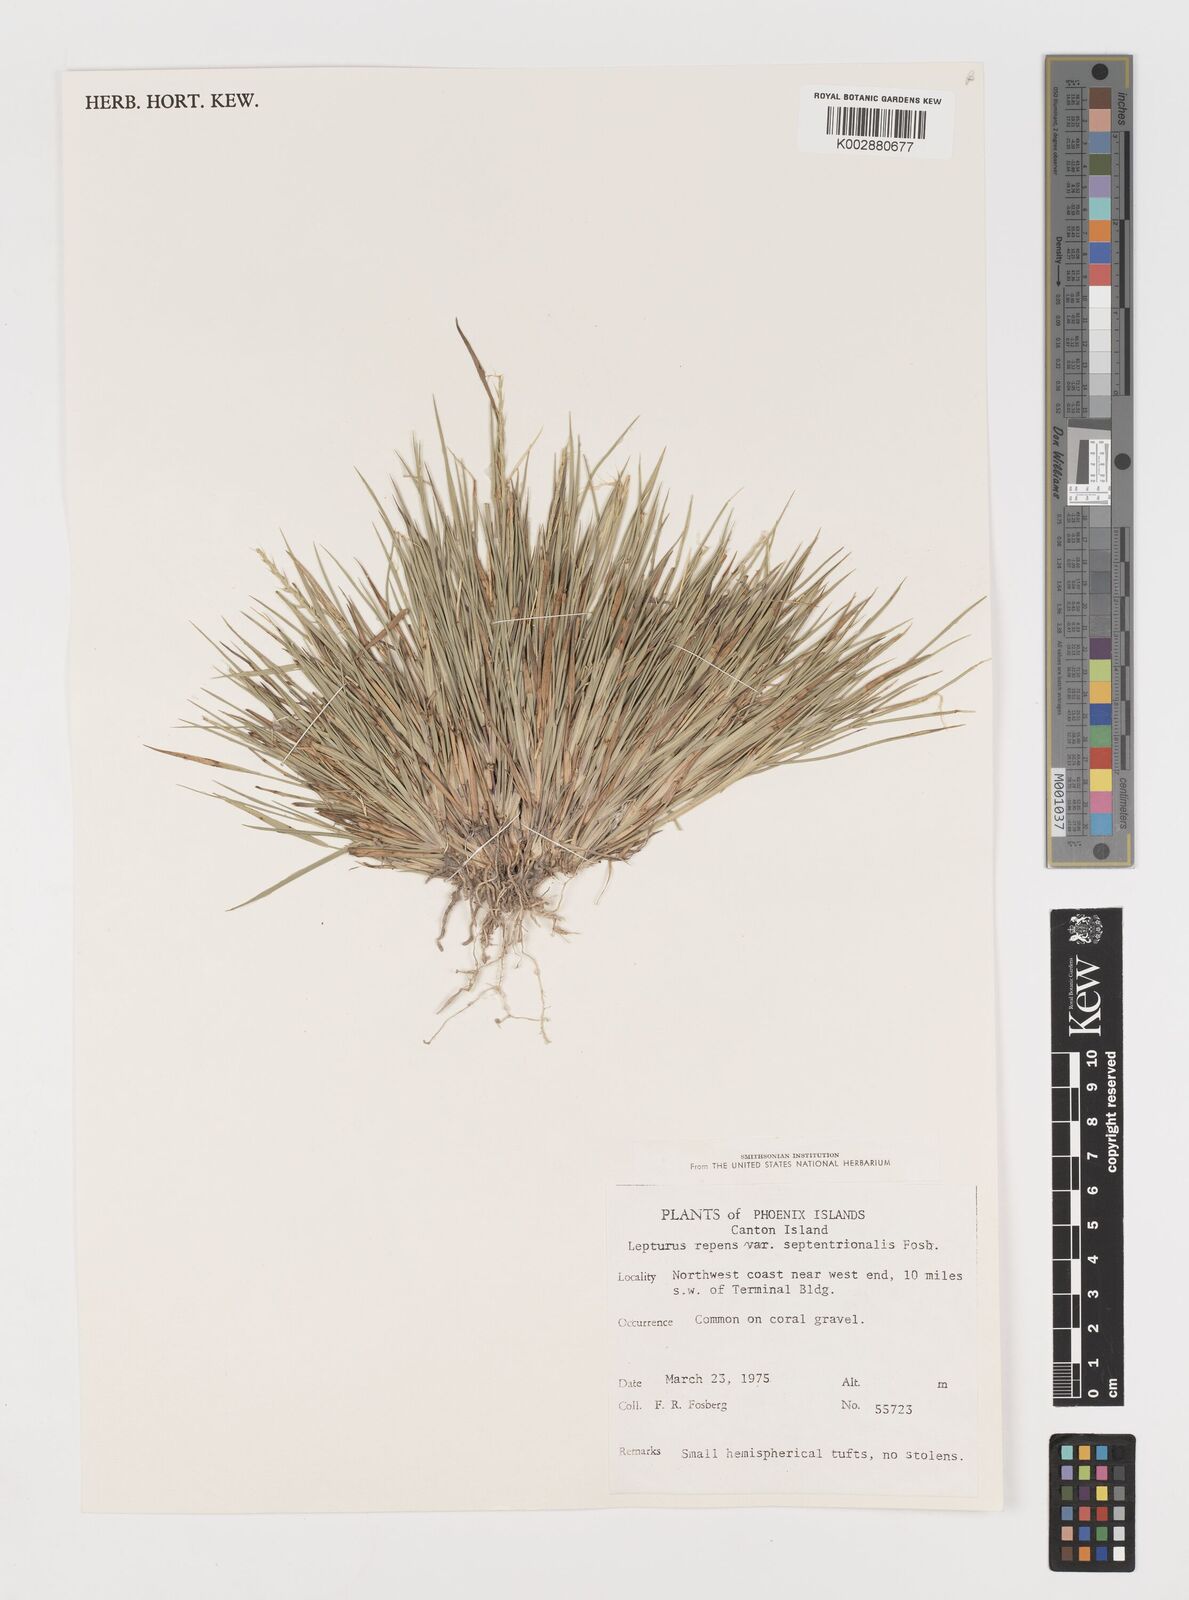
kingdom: Plantae
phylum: Tracheophyta
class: Liliopsida
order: Poales
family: Poaceae
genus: Lepturus
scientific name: Lepturus repens
